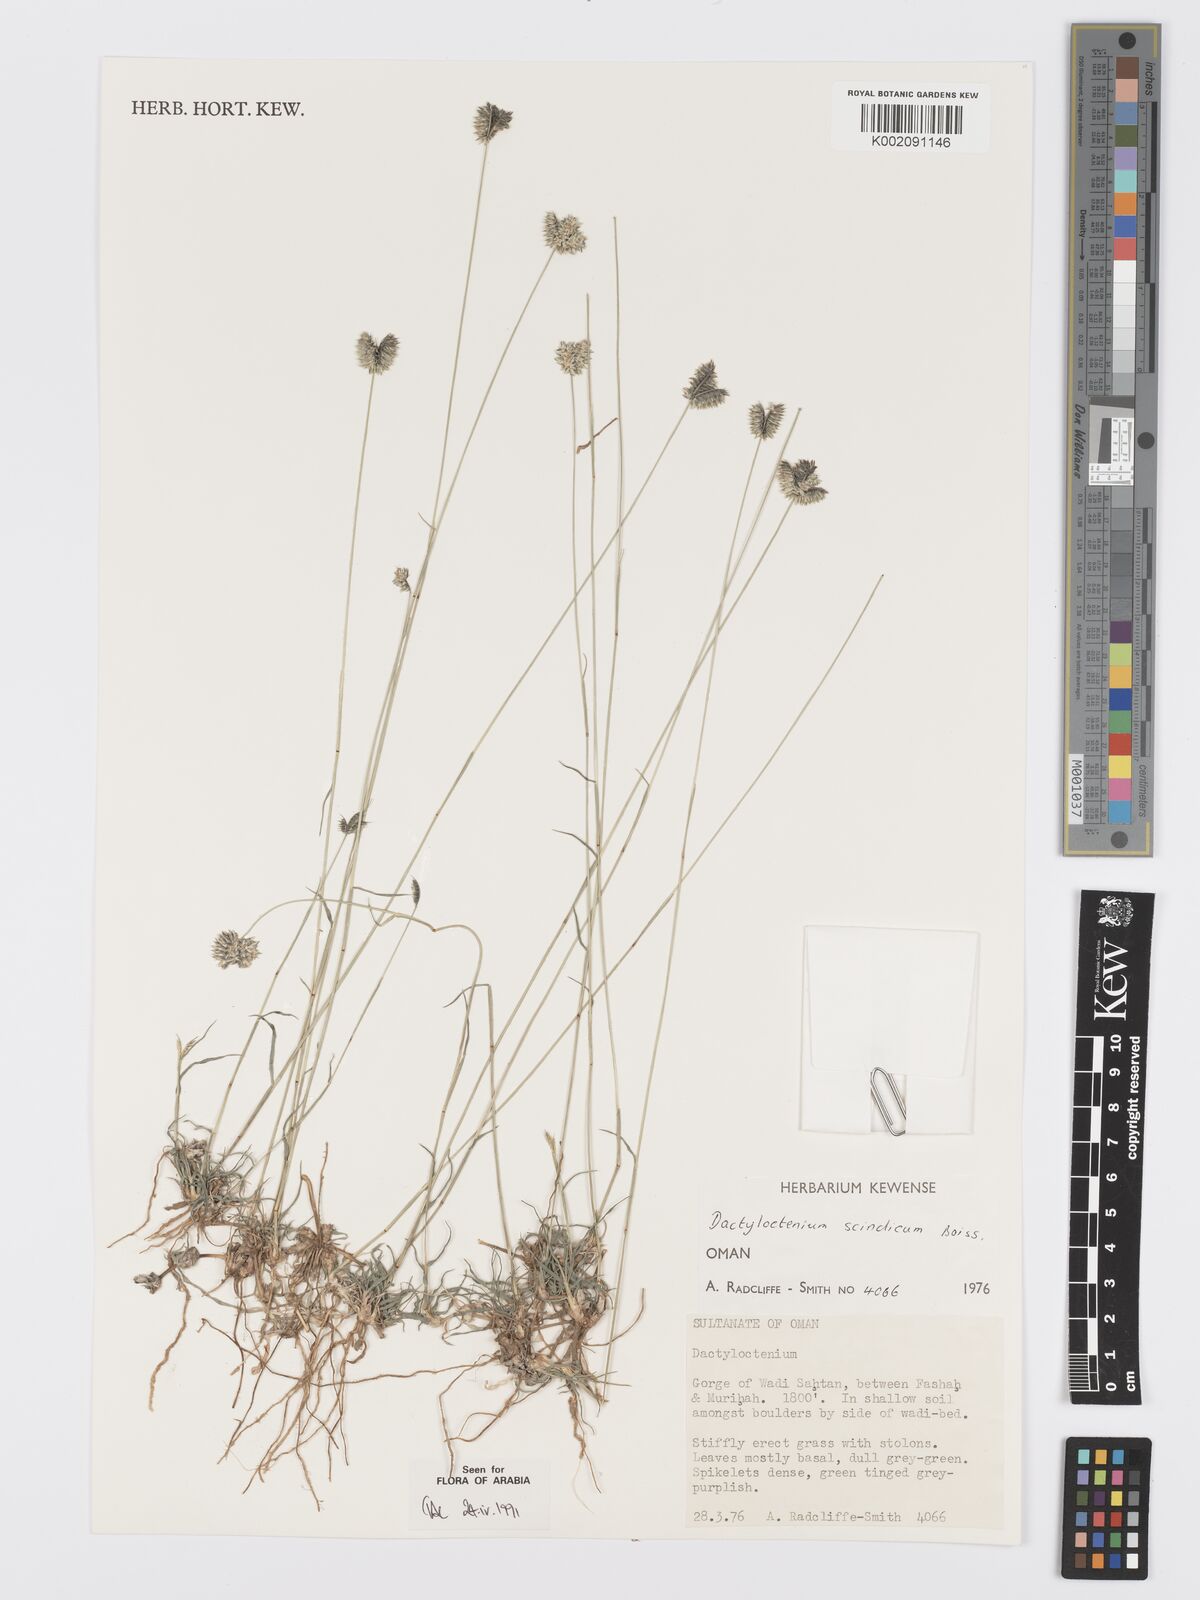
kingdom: Plantae
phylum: Tracheophyta
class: Liliopsida
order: Poales
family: Poaceae
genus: Dactyloctenium
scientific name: Dactyloctenium scindicum
